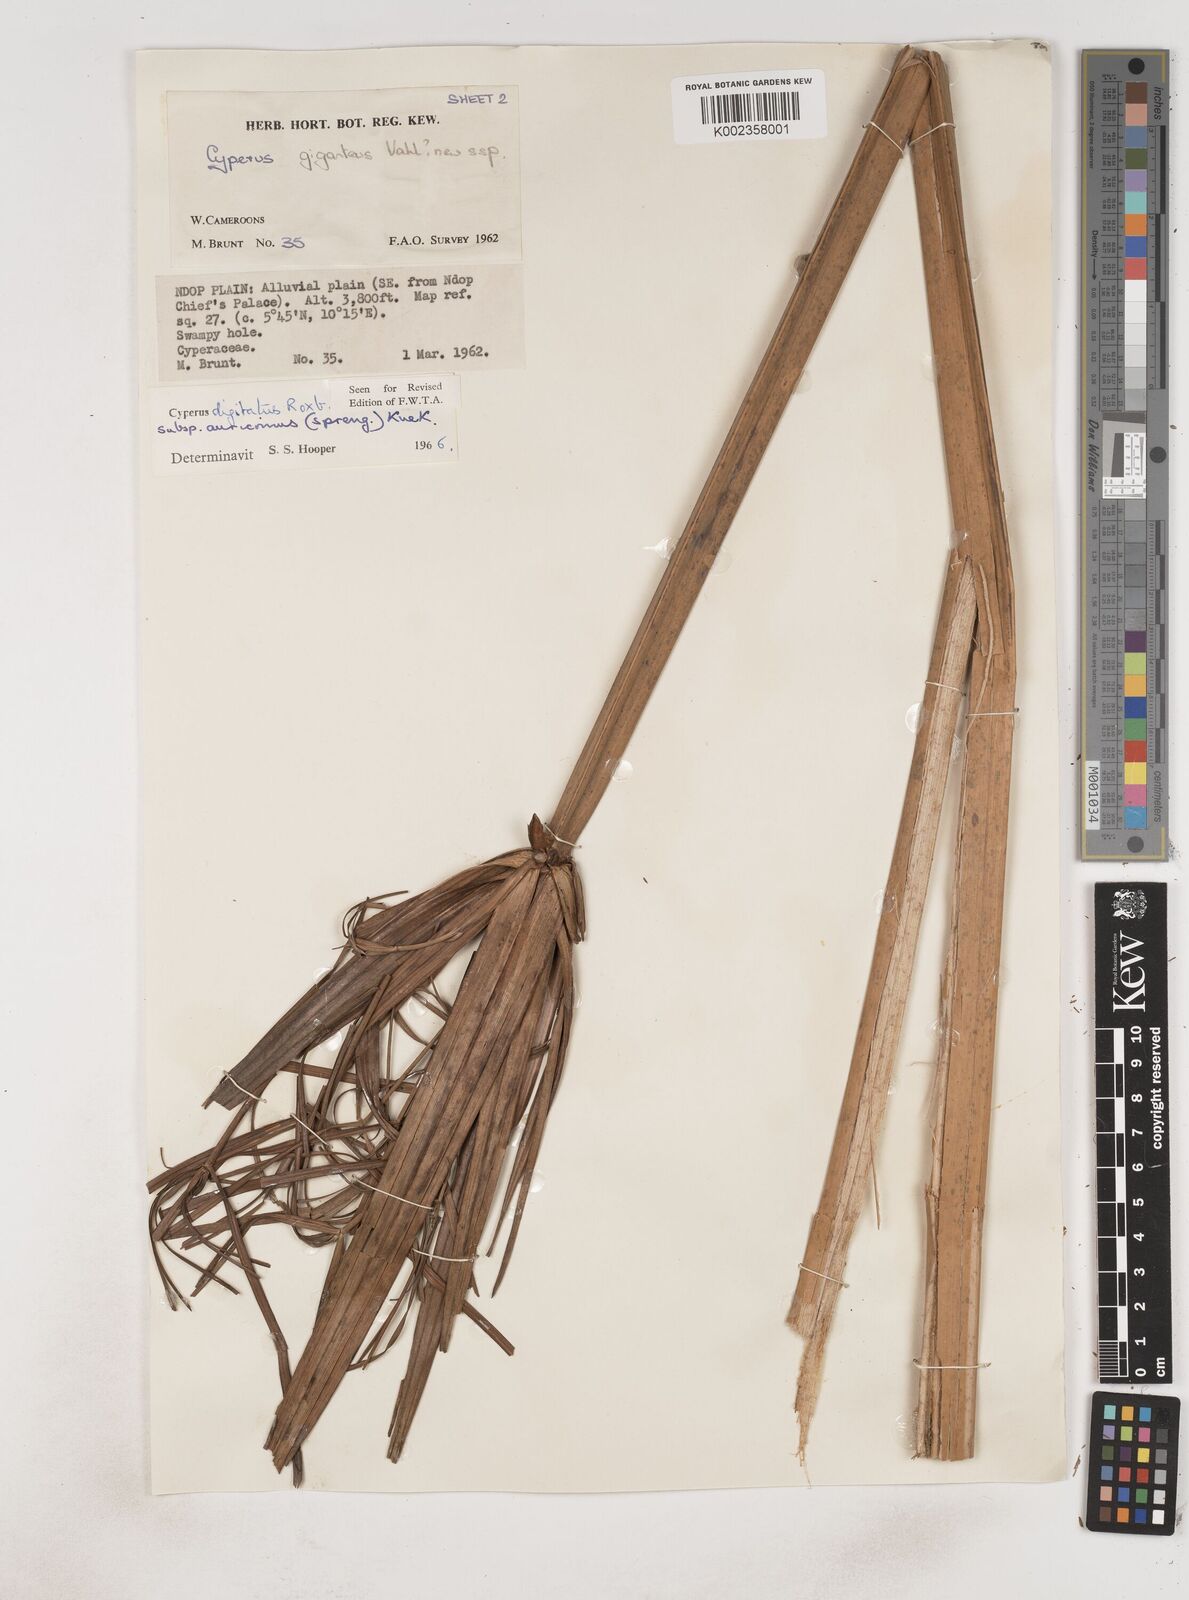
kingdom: Plantae
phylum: Tracheophyta
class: Liliopsida
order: Poales
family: Cyperaceae
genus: Cyperus
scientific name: Cyperus
